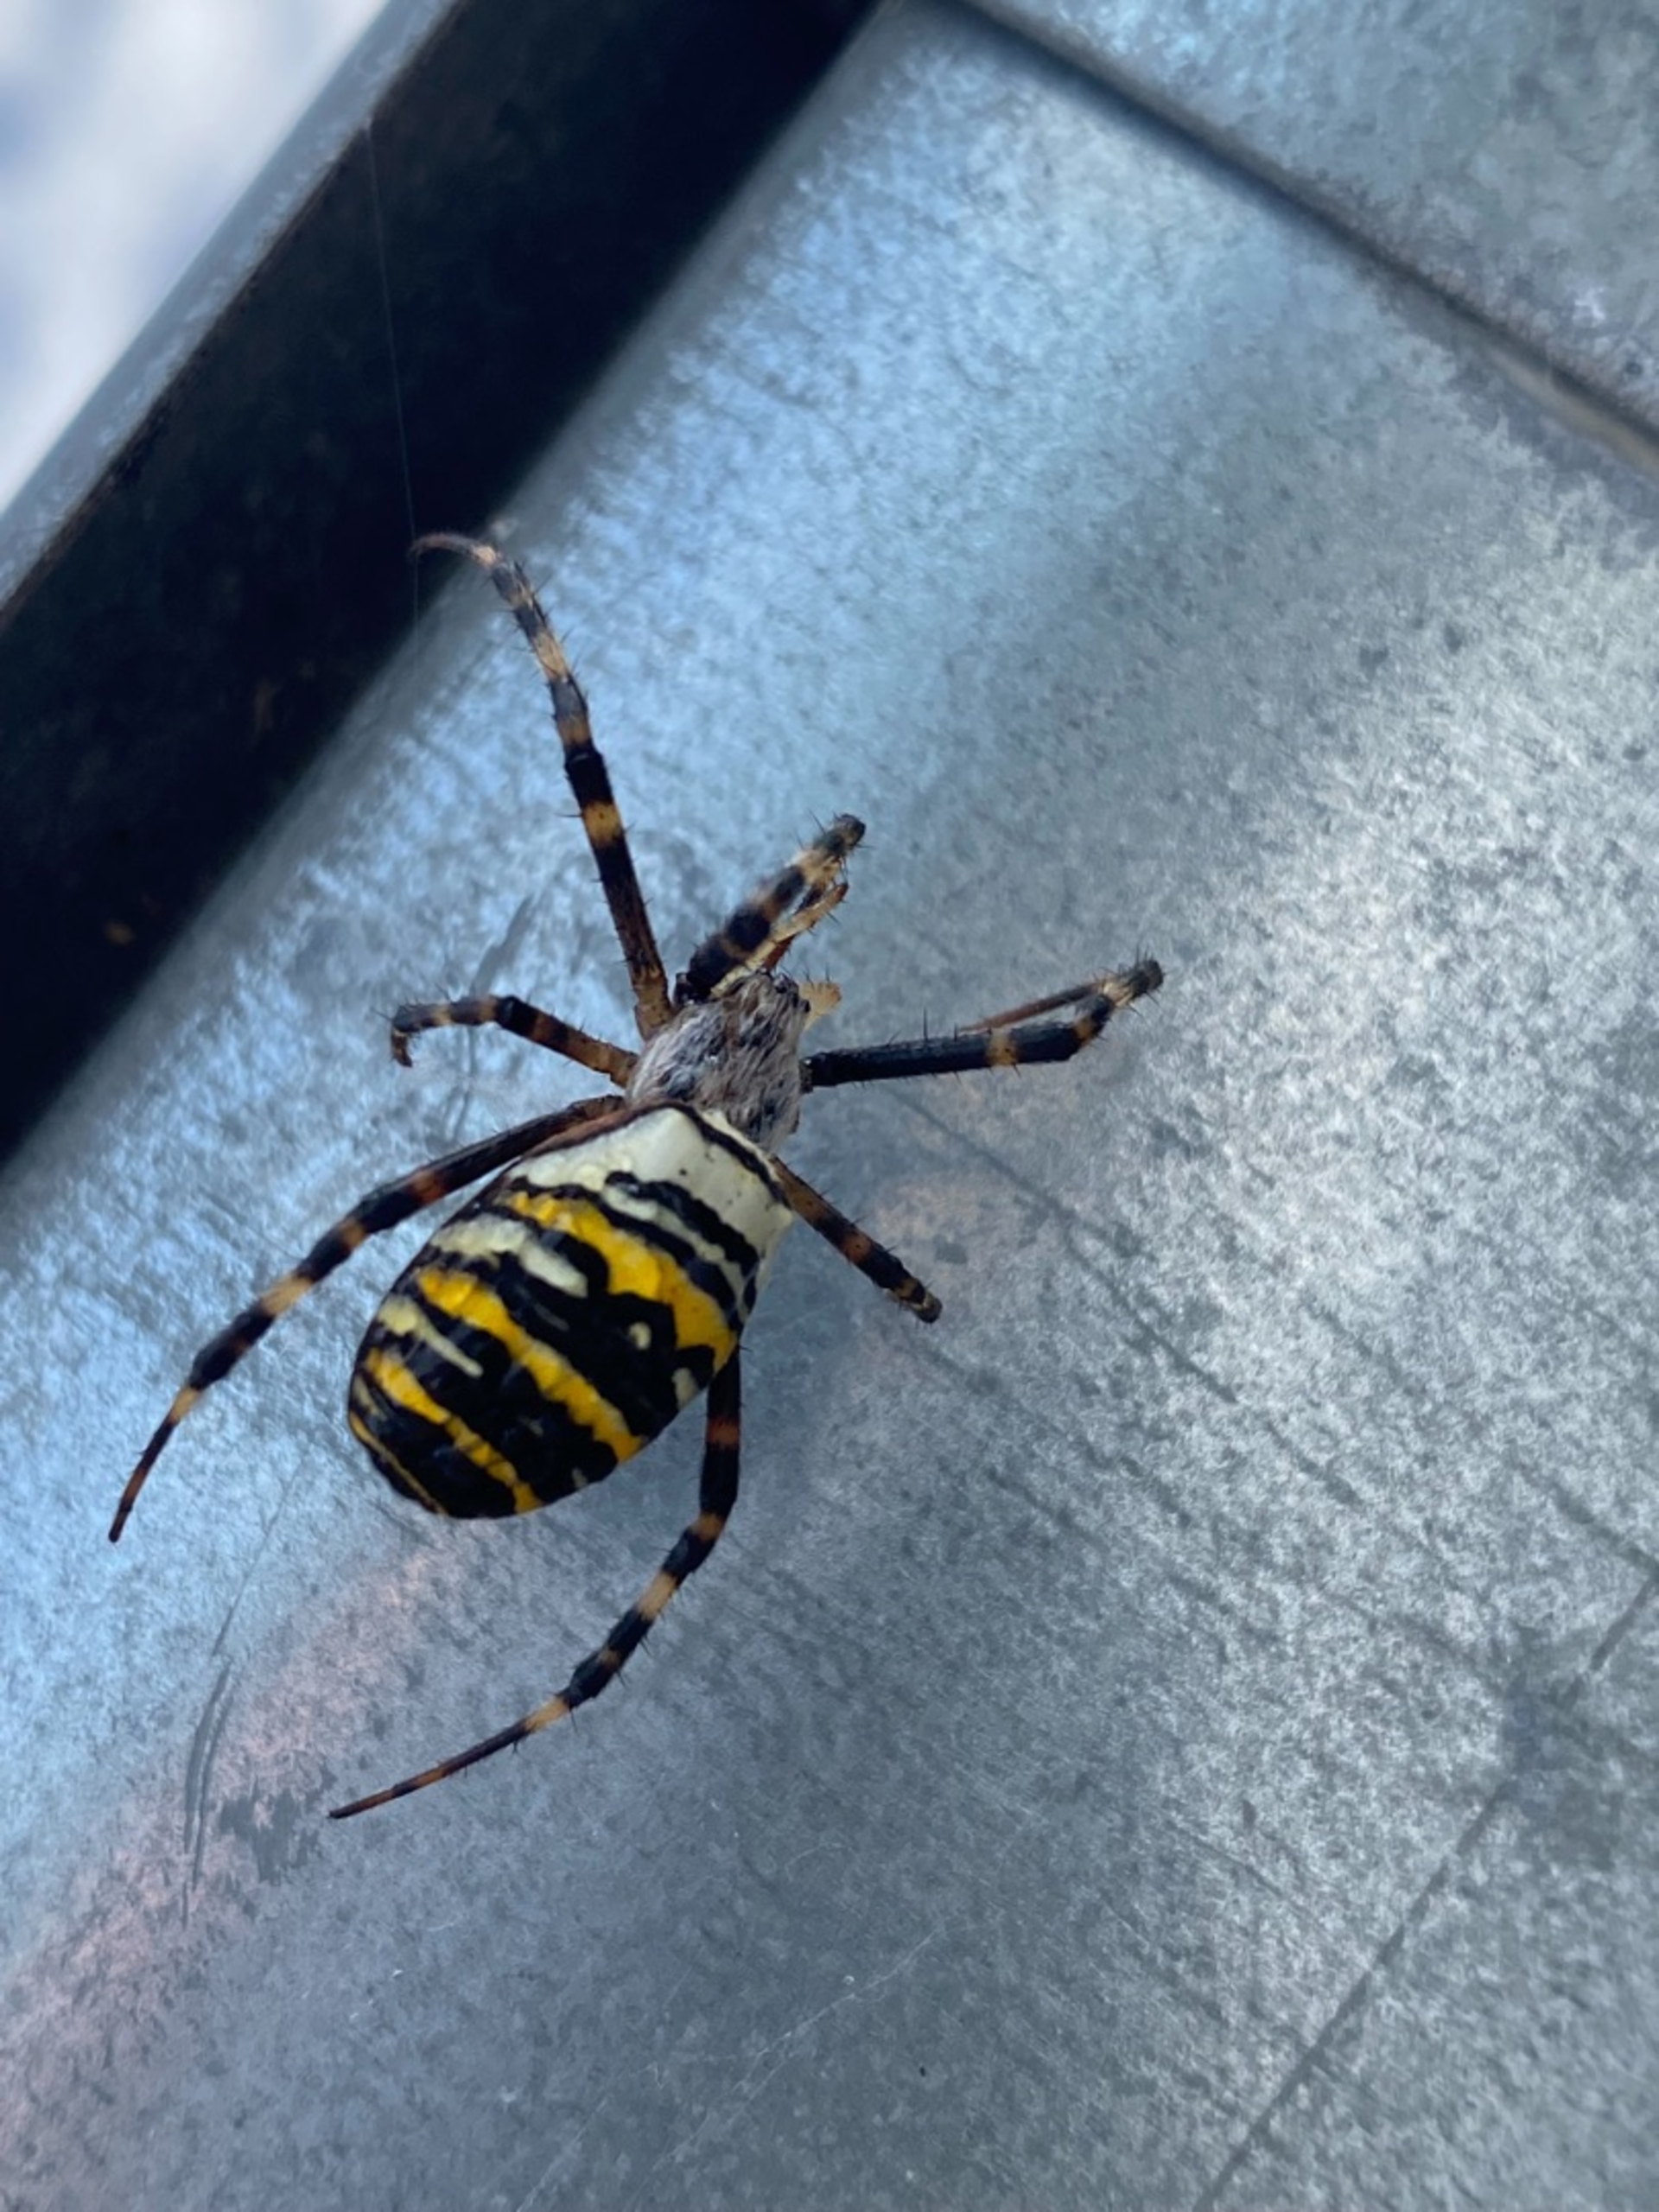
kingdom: Animalia
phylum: Arthropoda
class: Arachnida
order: Araneae
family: Araneidae
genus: Argiope
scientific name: Argiope bruennichi
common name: Hvepseedderkop
